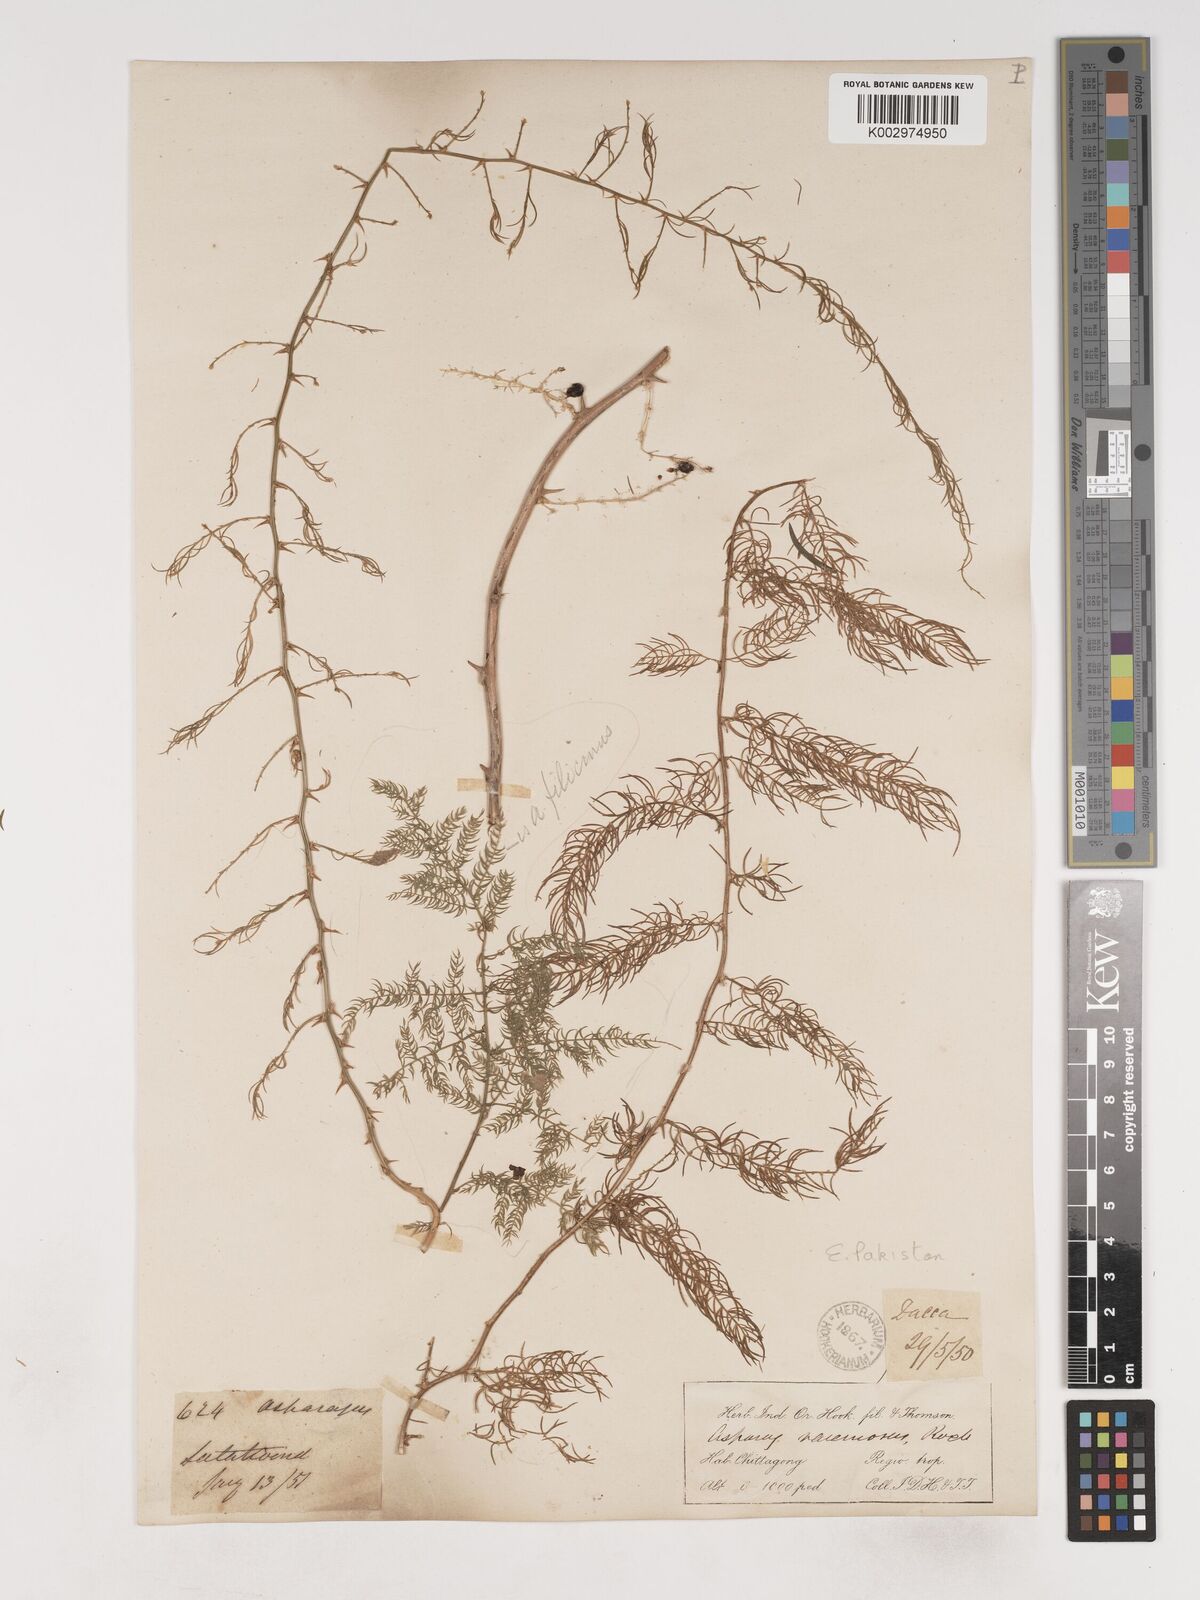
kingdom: Plantae
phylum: Tracheophyta
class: Liliopsida
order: Asparagales
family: Asparagaceae
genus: Asparagus
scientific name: Asparagus filicinus
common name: Fern asparagus
